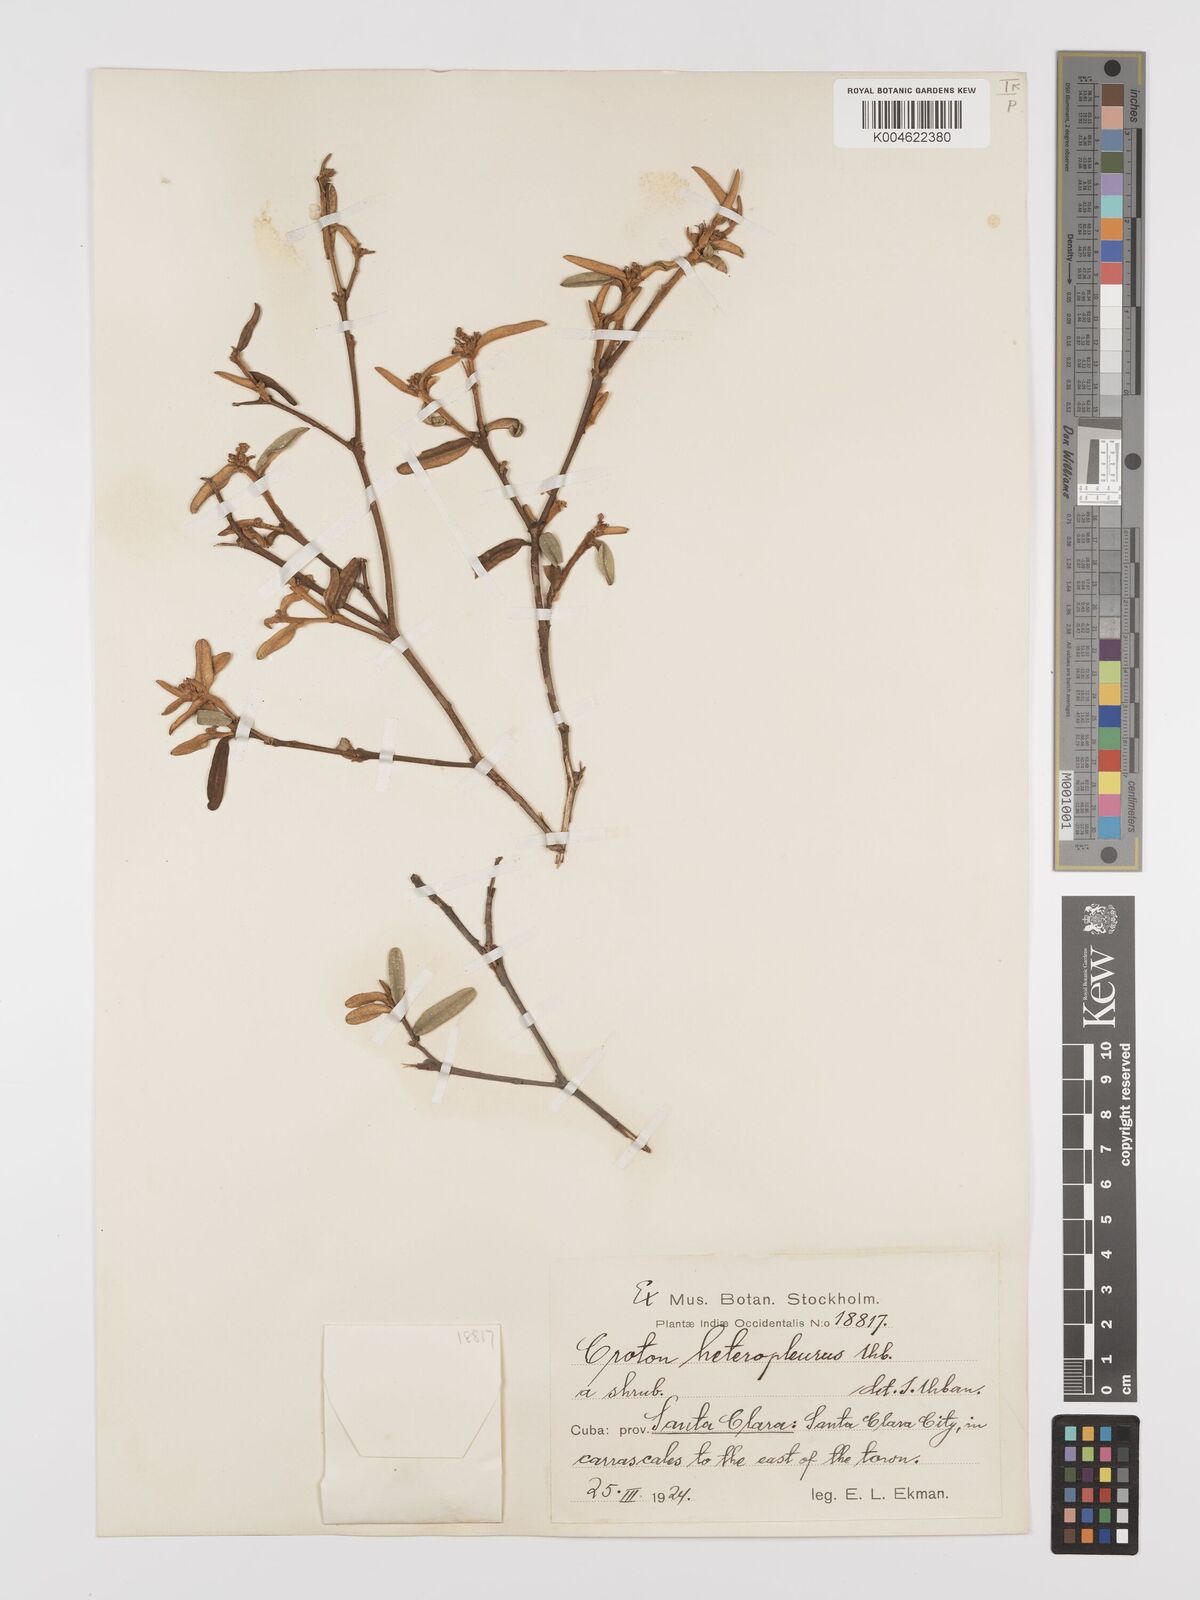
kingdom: Plantae
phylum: Tracheophyta
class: Magnoliopsida
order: Malpighiales
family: Euphorbiaceae
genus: Croton
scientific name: Croton monogynus
